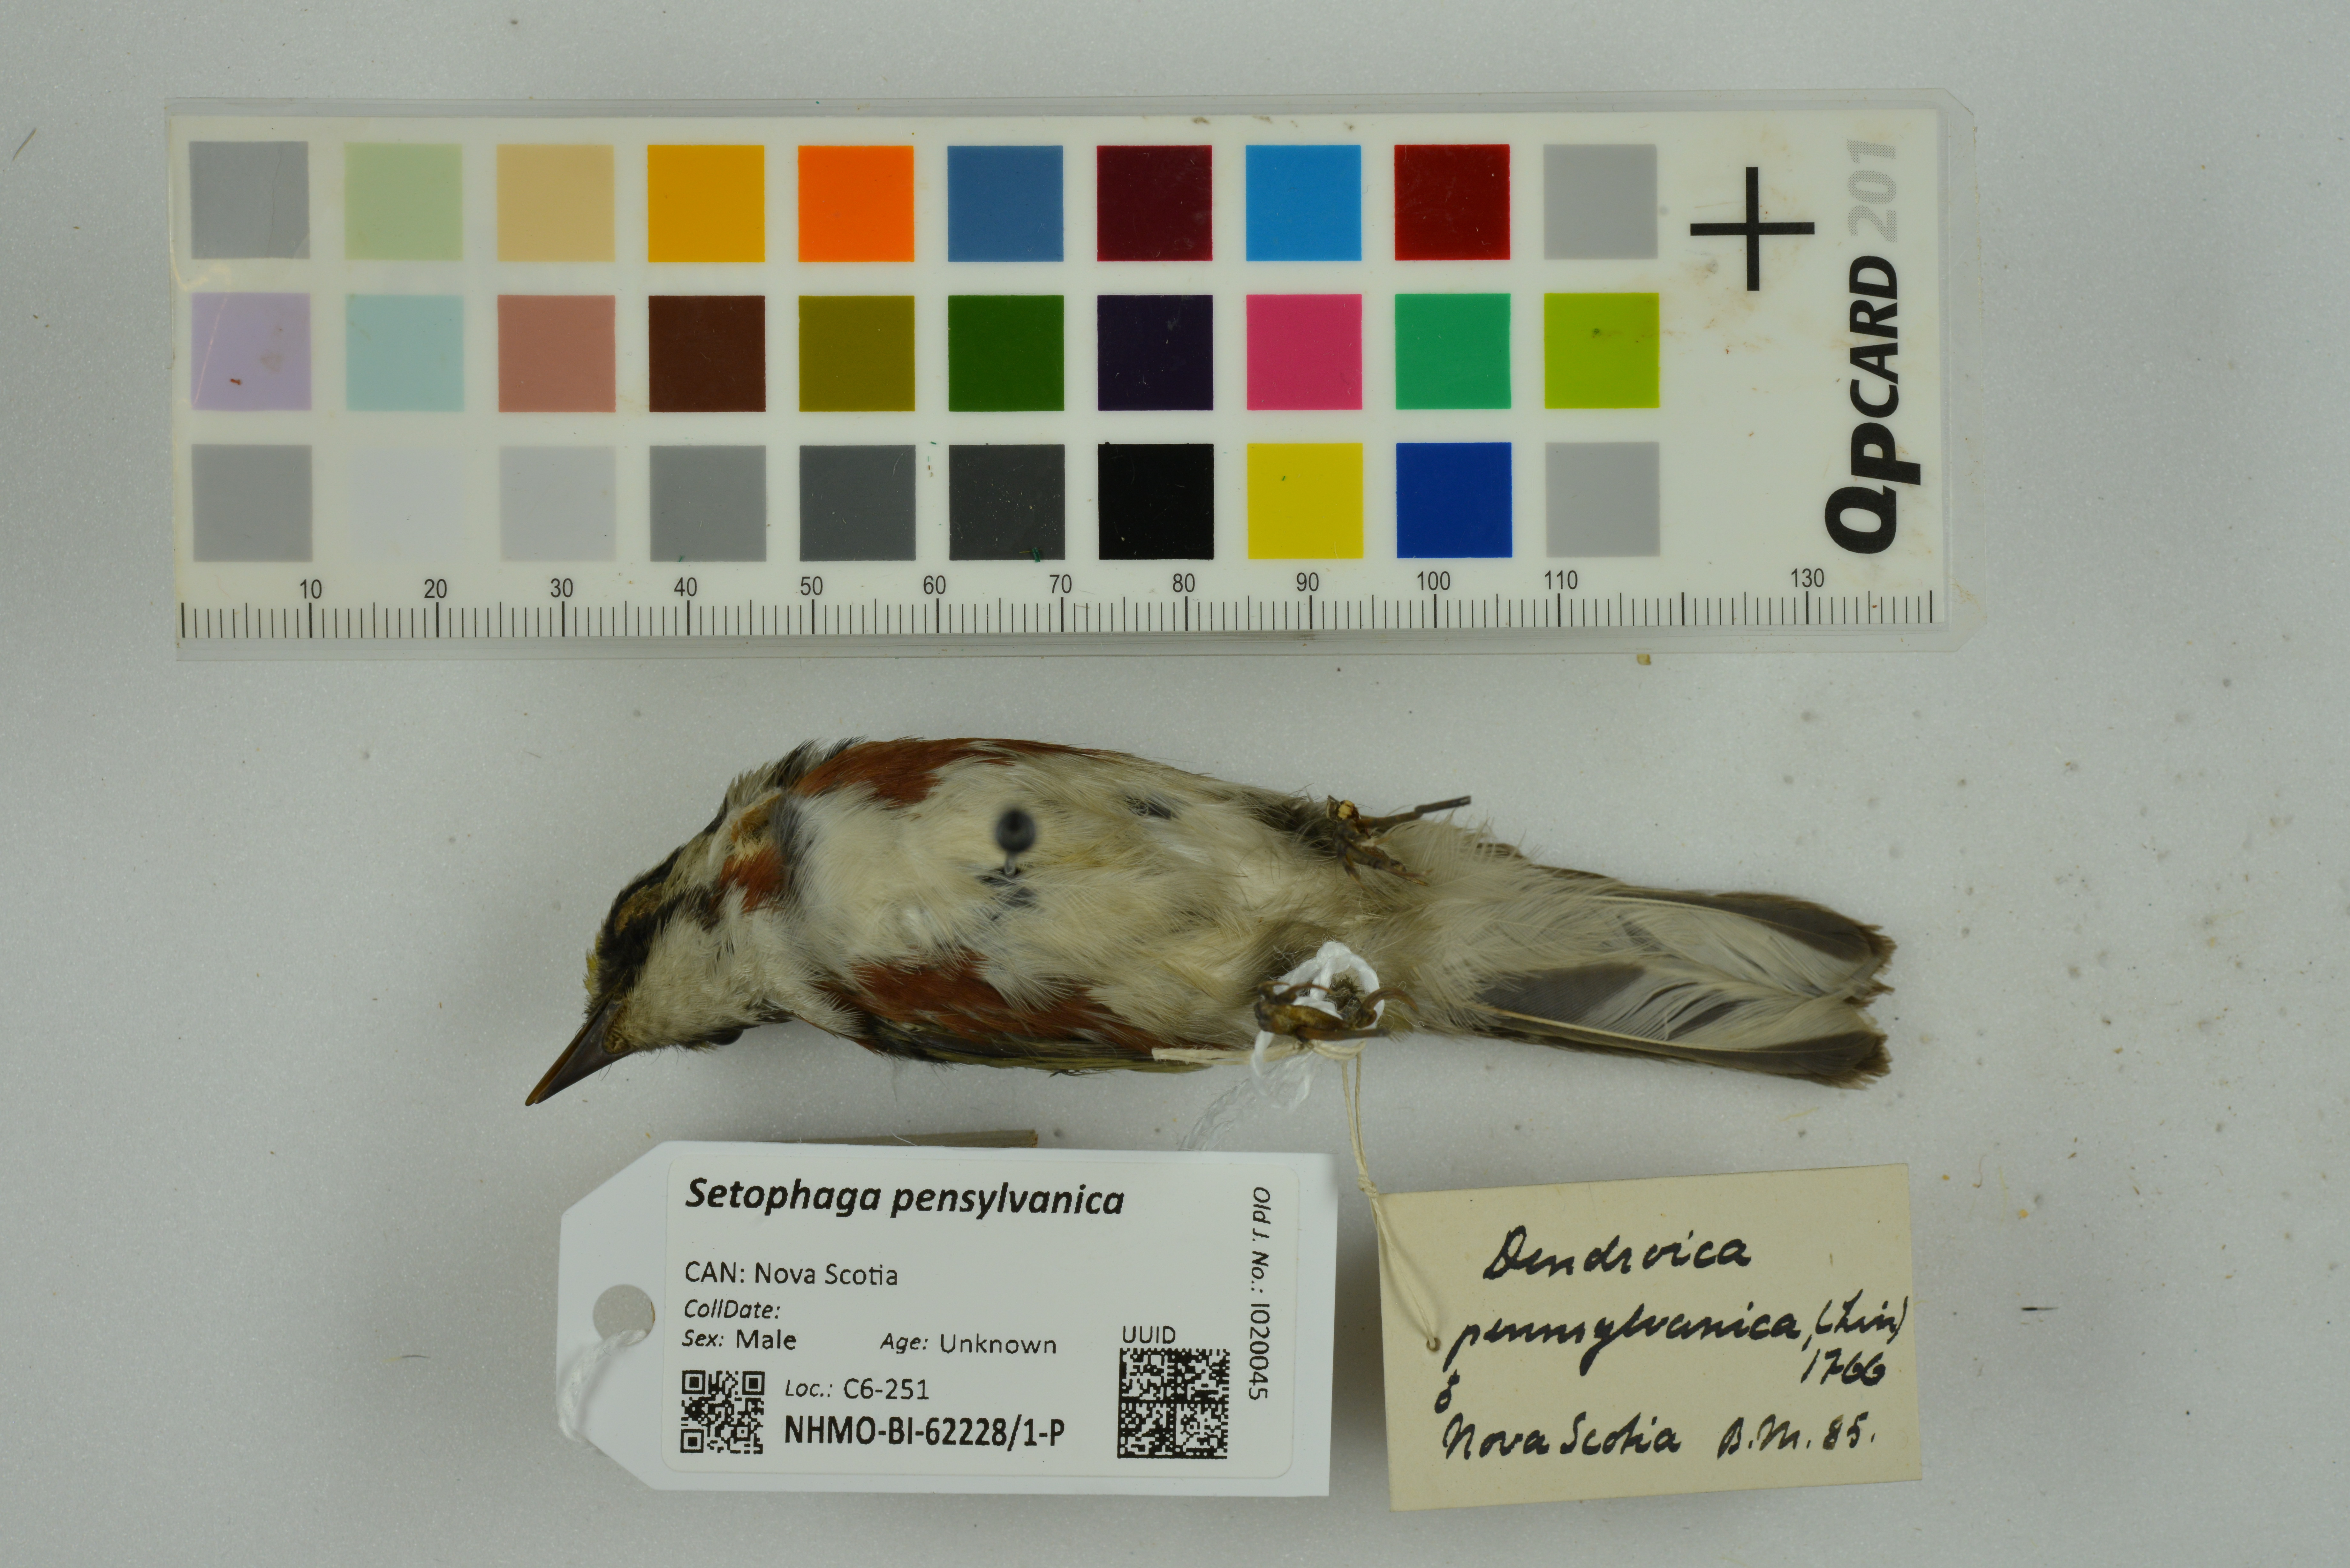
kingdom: Animalia
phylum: Chordata
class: Aves
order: Passeriformes
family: Parulidae
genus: Setophaga
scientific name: Setophaga pensylvanica
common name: Chestnut-sided warbler
